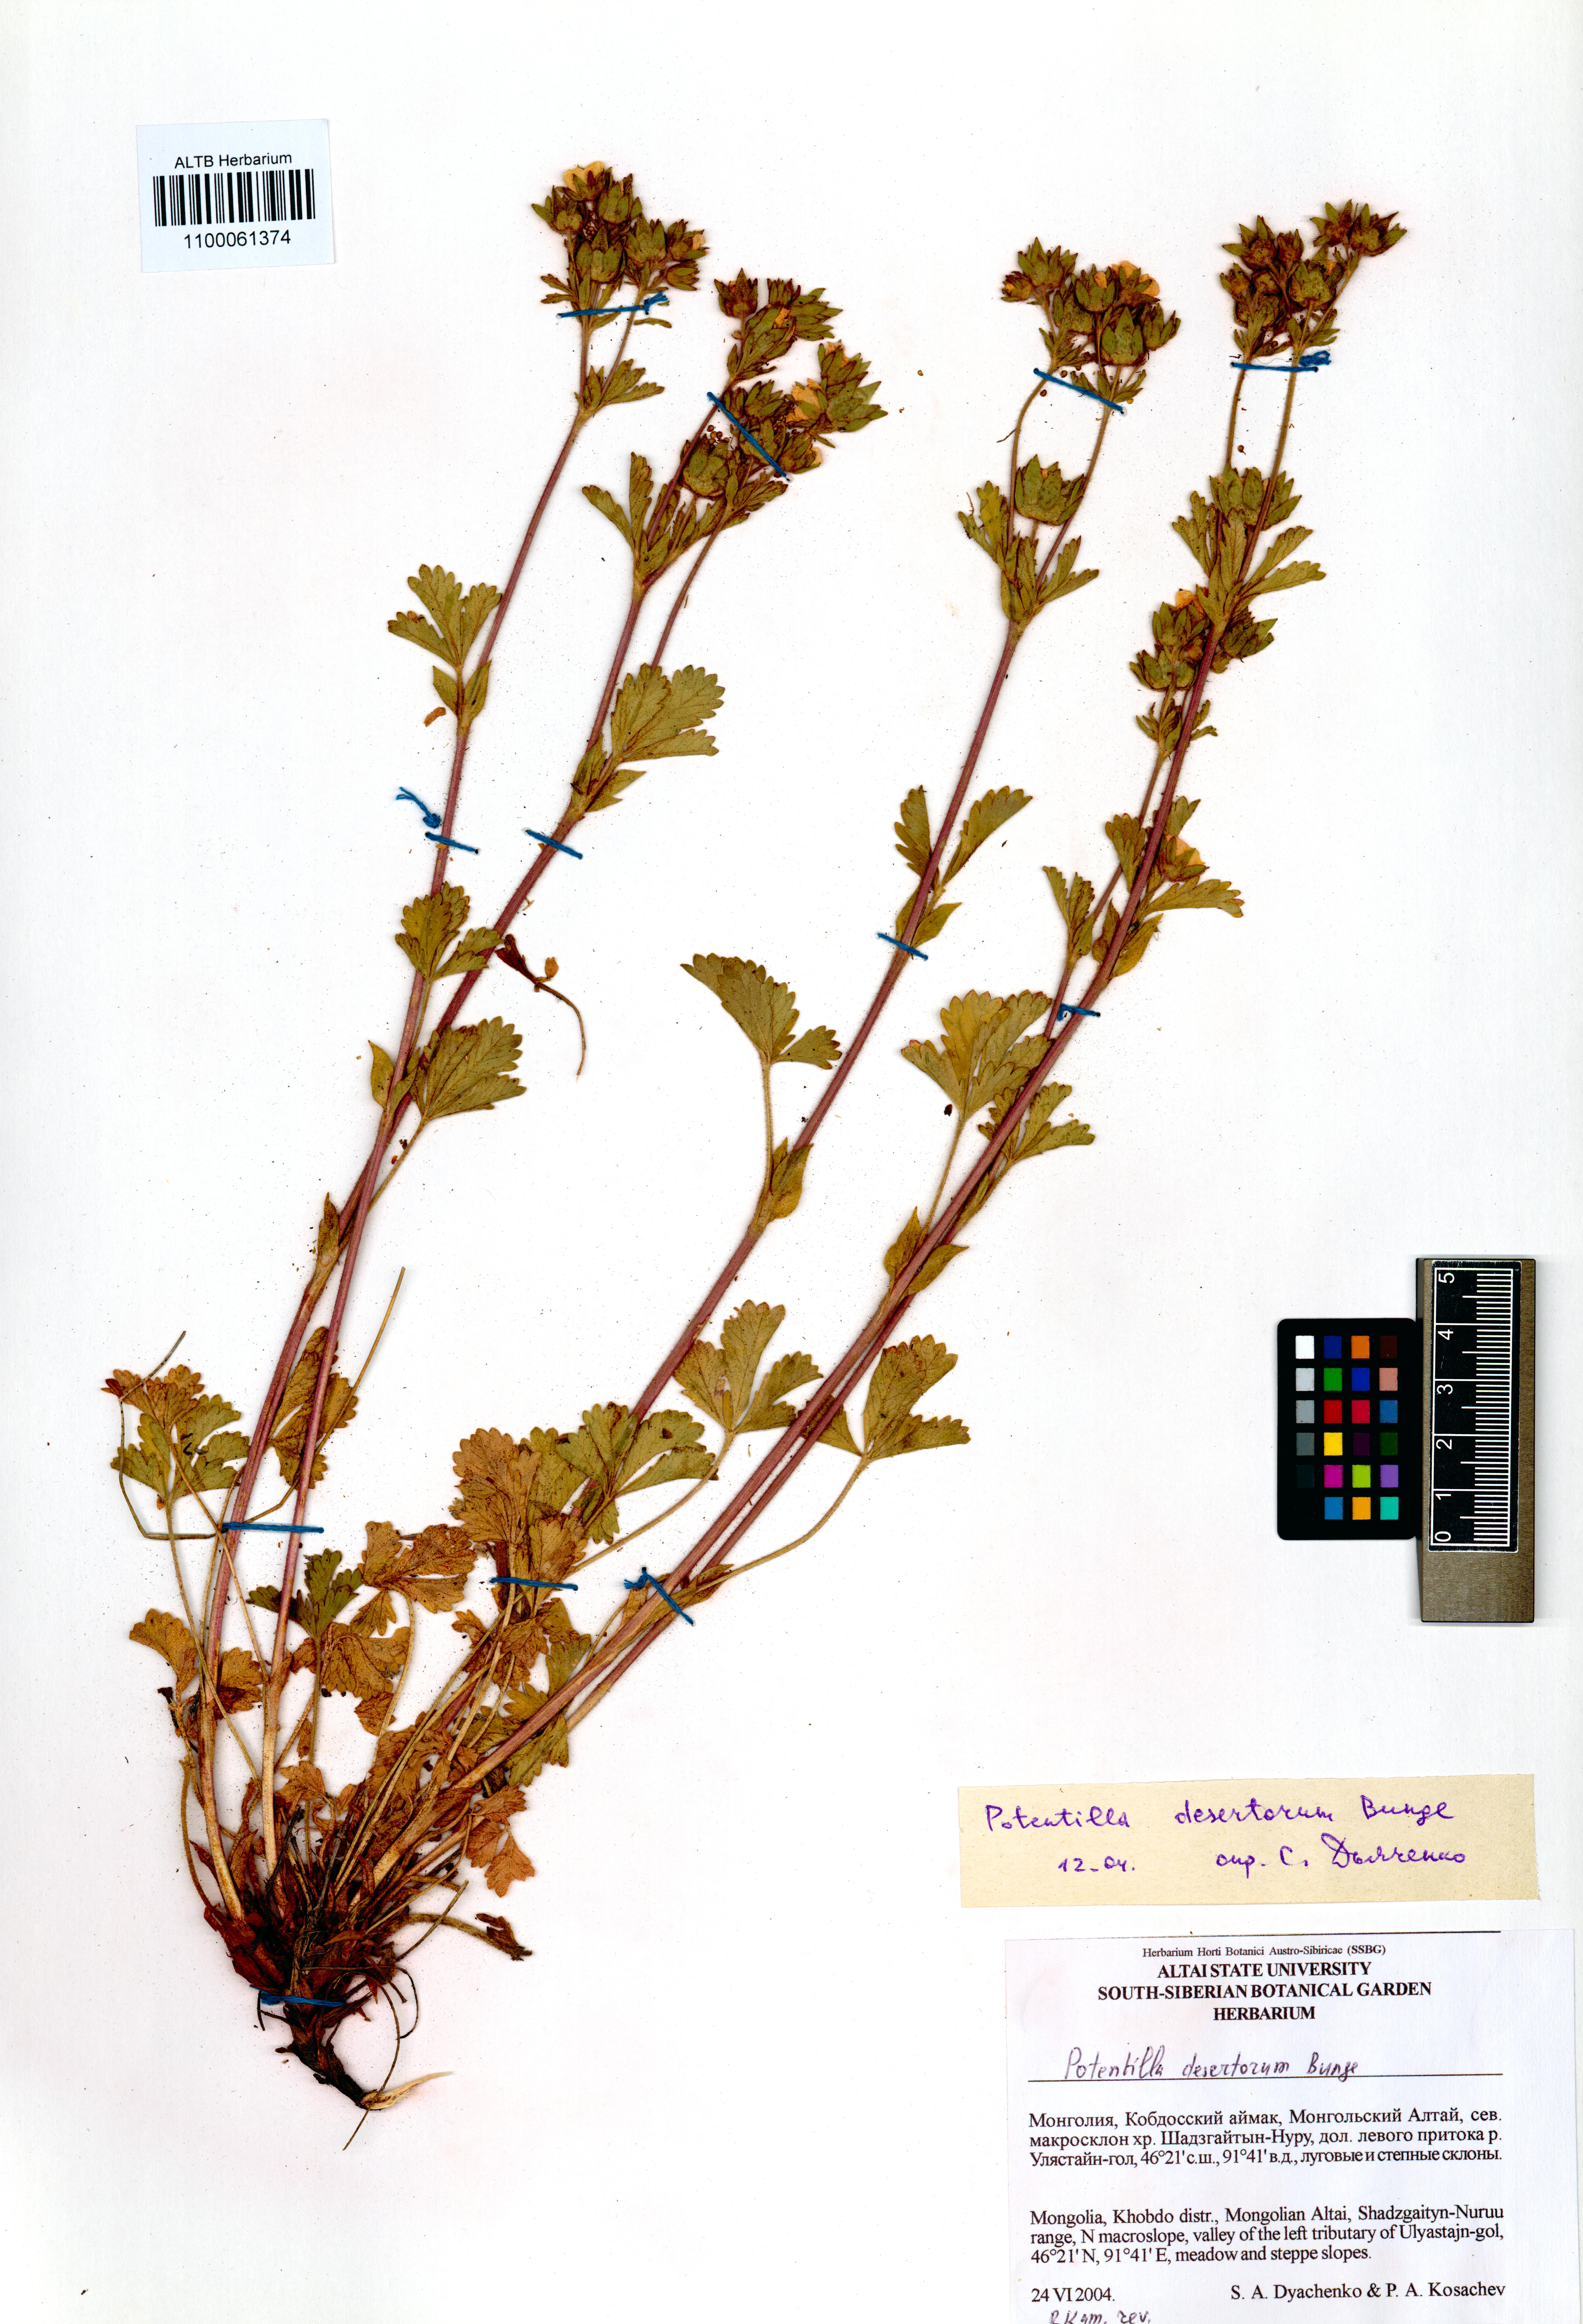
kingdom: Plantae
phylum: Tracheophyta
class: Magnoliopsida
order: Rosales
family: Rosaceae
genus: Potentilla
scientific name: Potentilla desertorum
